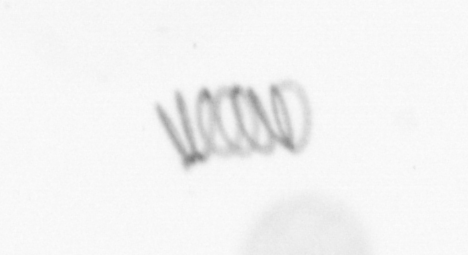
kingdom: Chromista
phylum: Ochrophyta
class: Bacillariophyceae
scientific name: Bacillariophyceae
